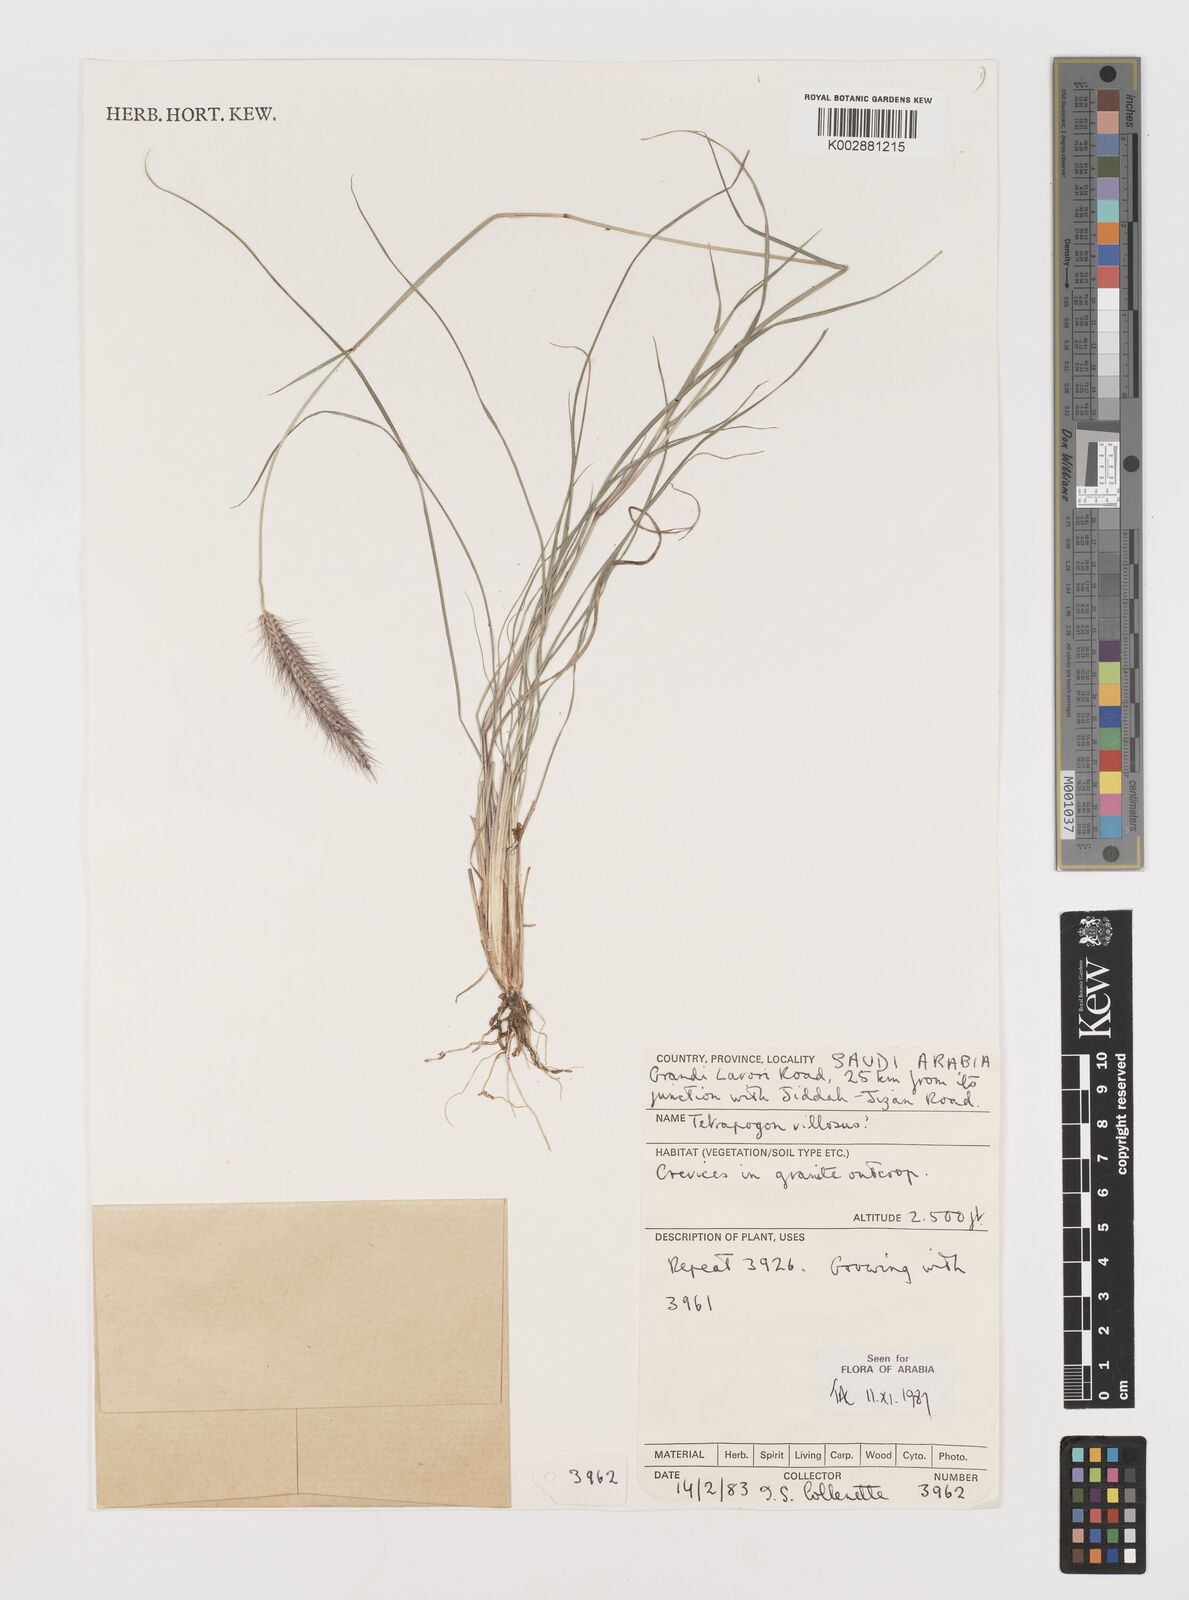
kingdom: Plantae
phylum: Tracheophyta
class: Liliopsida
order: Poales
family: Poaceae
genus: Tetrapogon
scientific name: Tetrapogon villosus
